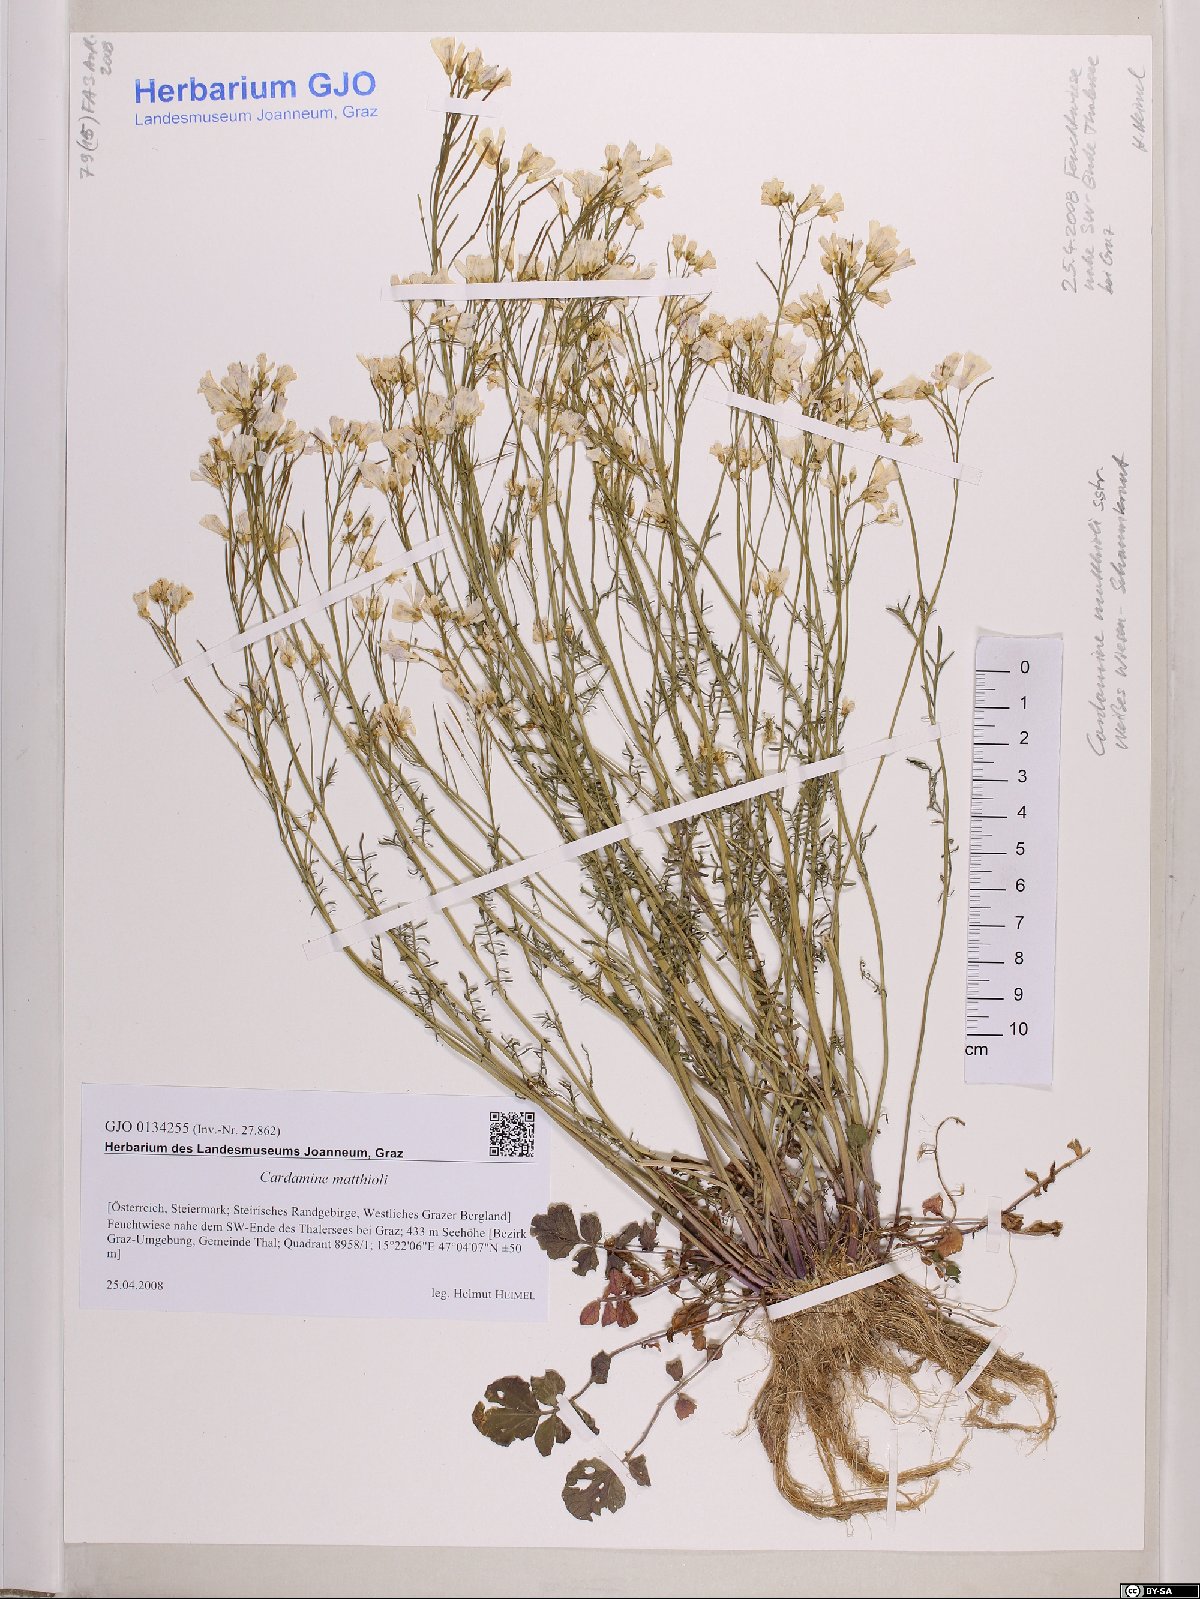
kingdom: Plantae
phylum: Tracheophyta
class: Magnoliopsida
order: Brassicales
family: Brassicaceae
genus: Cardamine
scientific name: Cardamine matthioli
